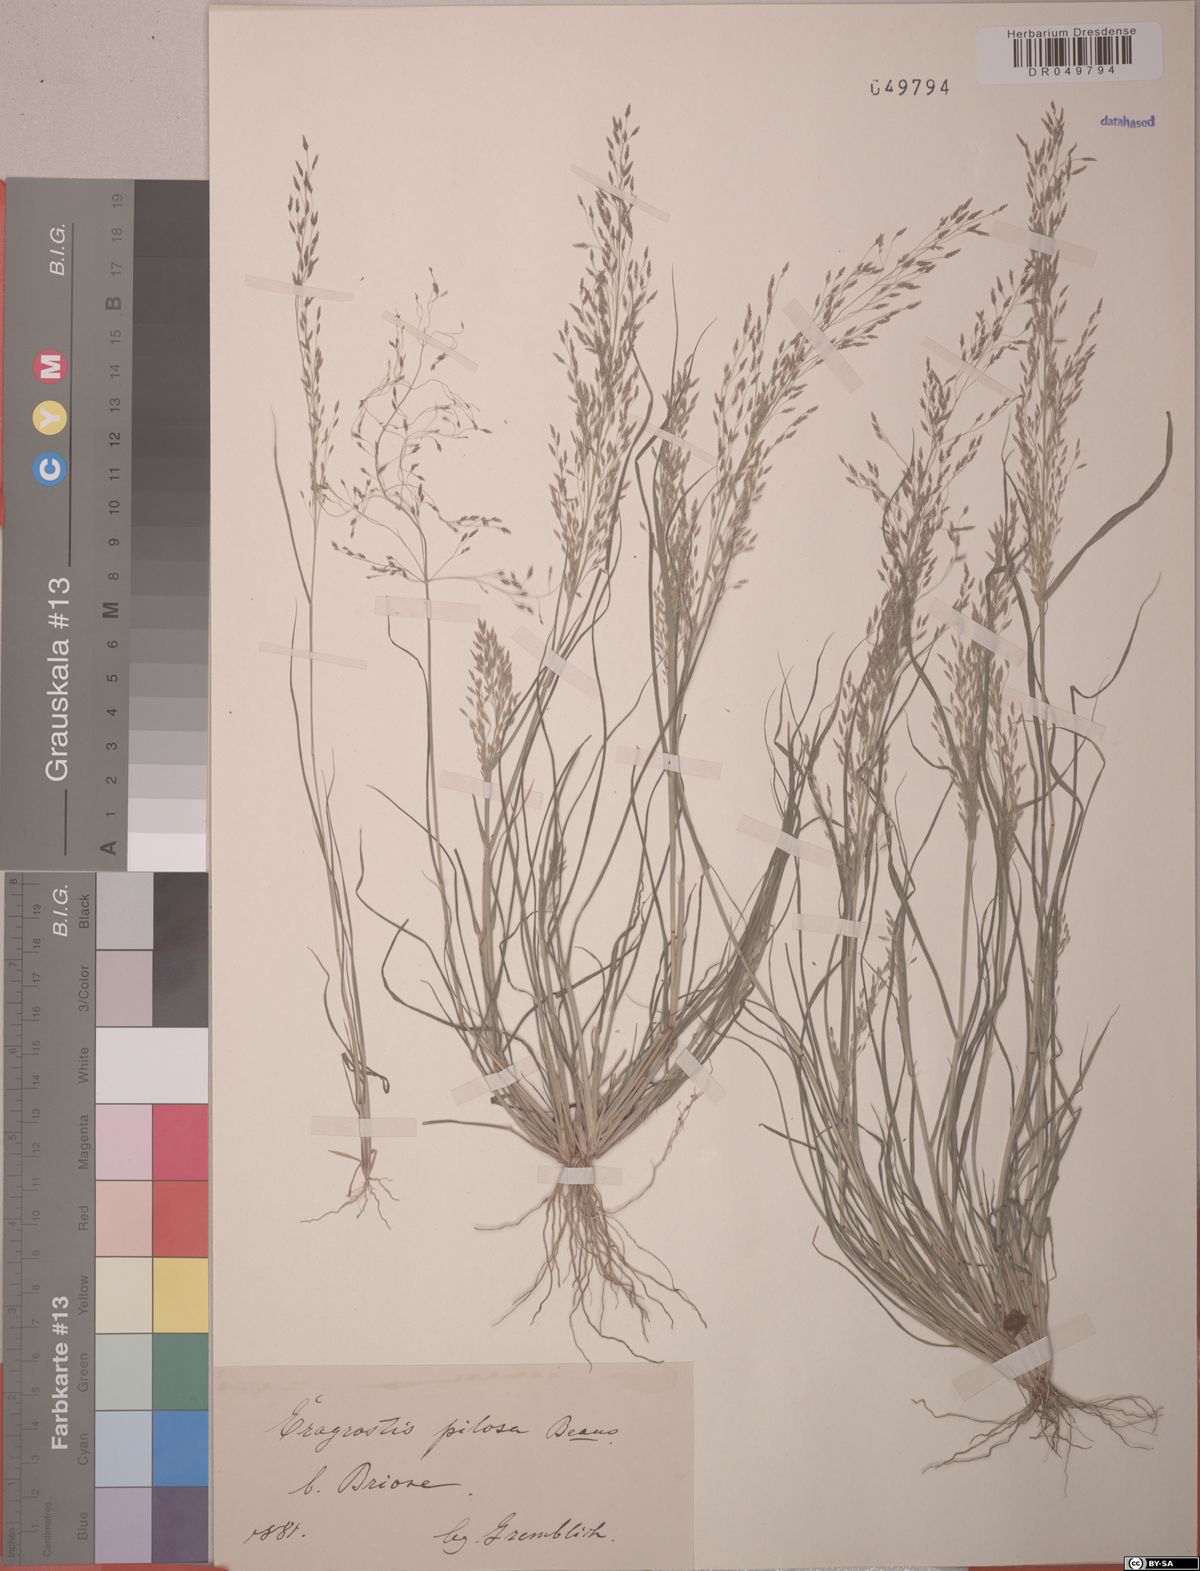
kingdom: Plantae
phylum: Tracheophyta
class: Liliopsida
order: Poales
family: Poaceae
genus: Eragrostis
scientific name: Eragrostis pilosa
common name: Indian lovegrass
